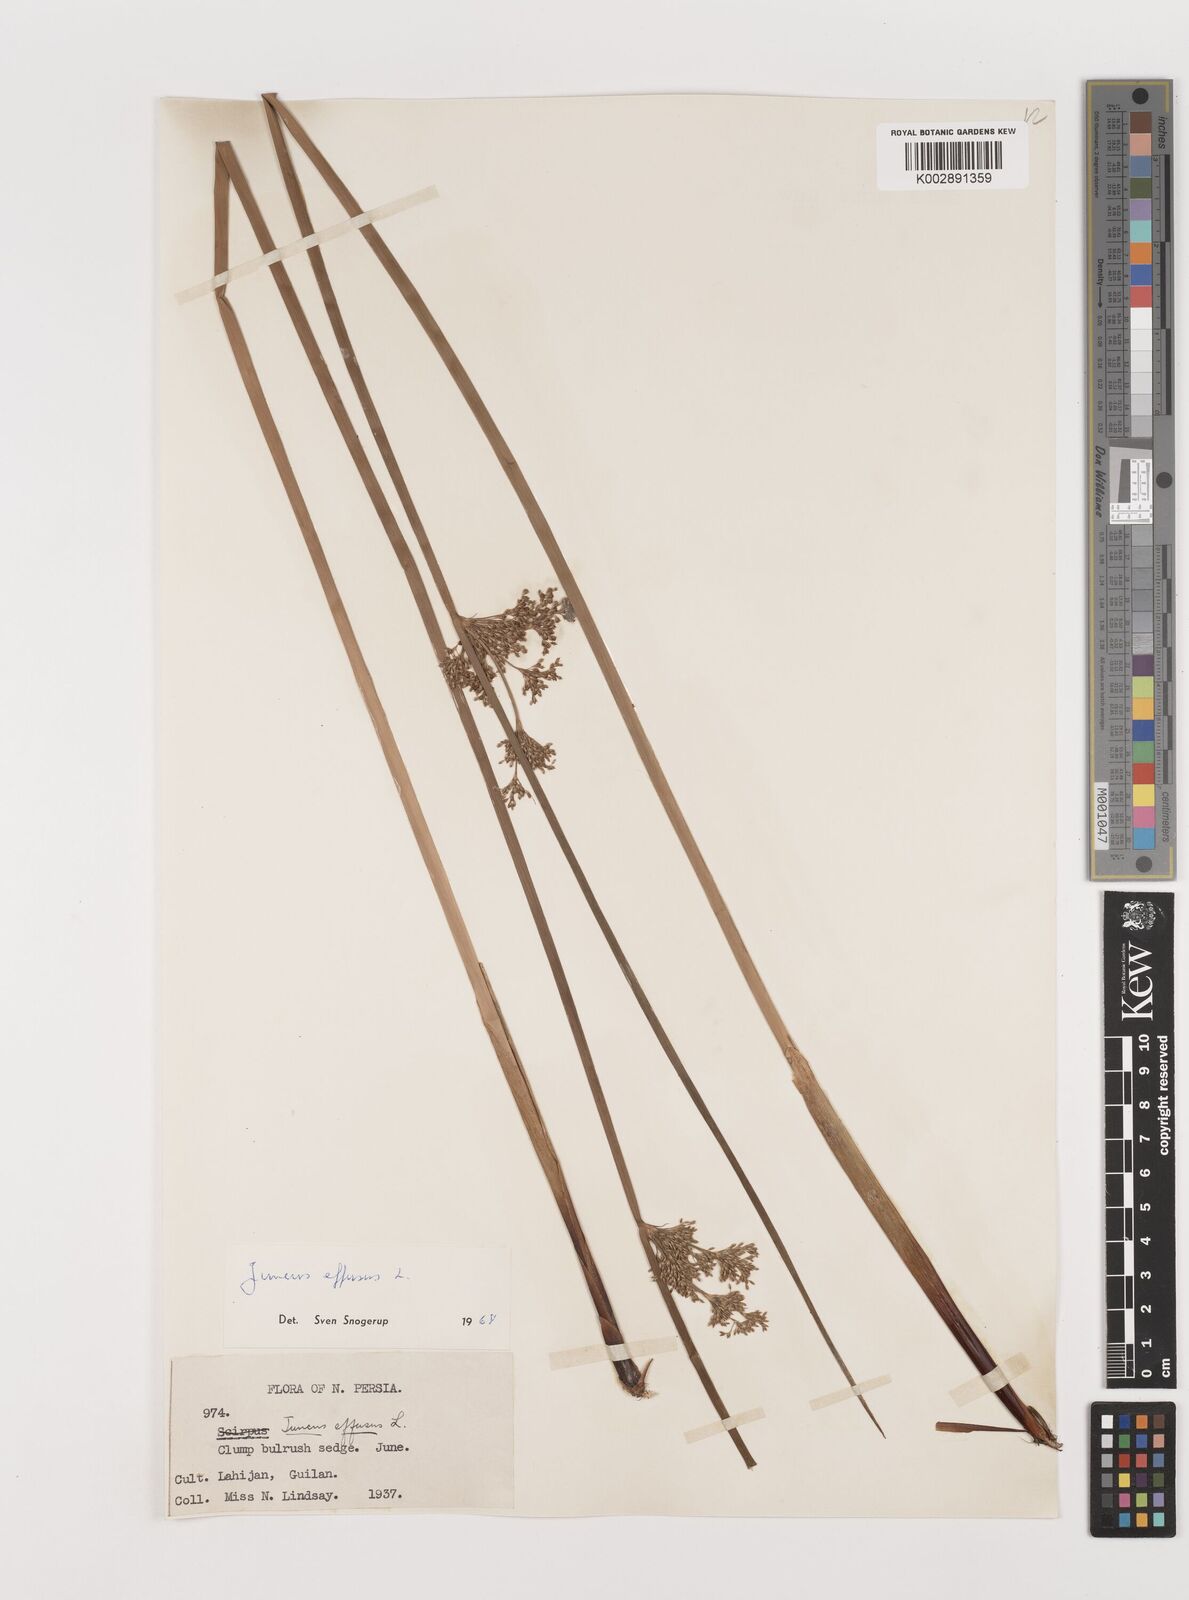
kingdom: Plantae
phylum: Tracheophyta
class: Liliopsida
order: Poales
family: Juncaceae
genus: Juncus
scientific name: Juncus effusus
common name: Soft rush
